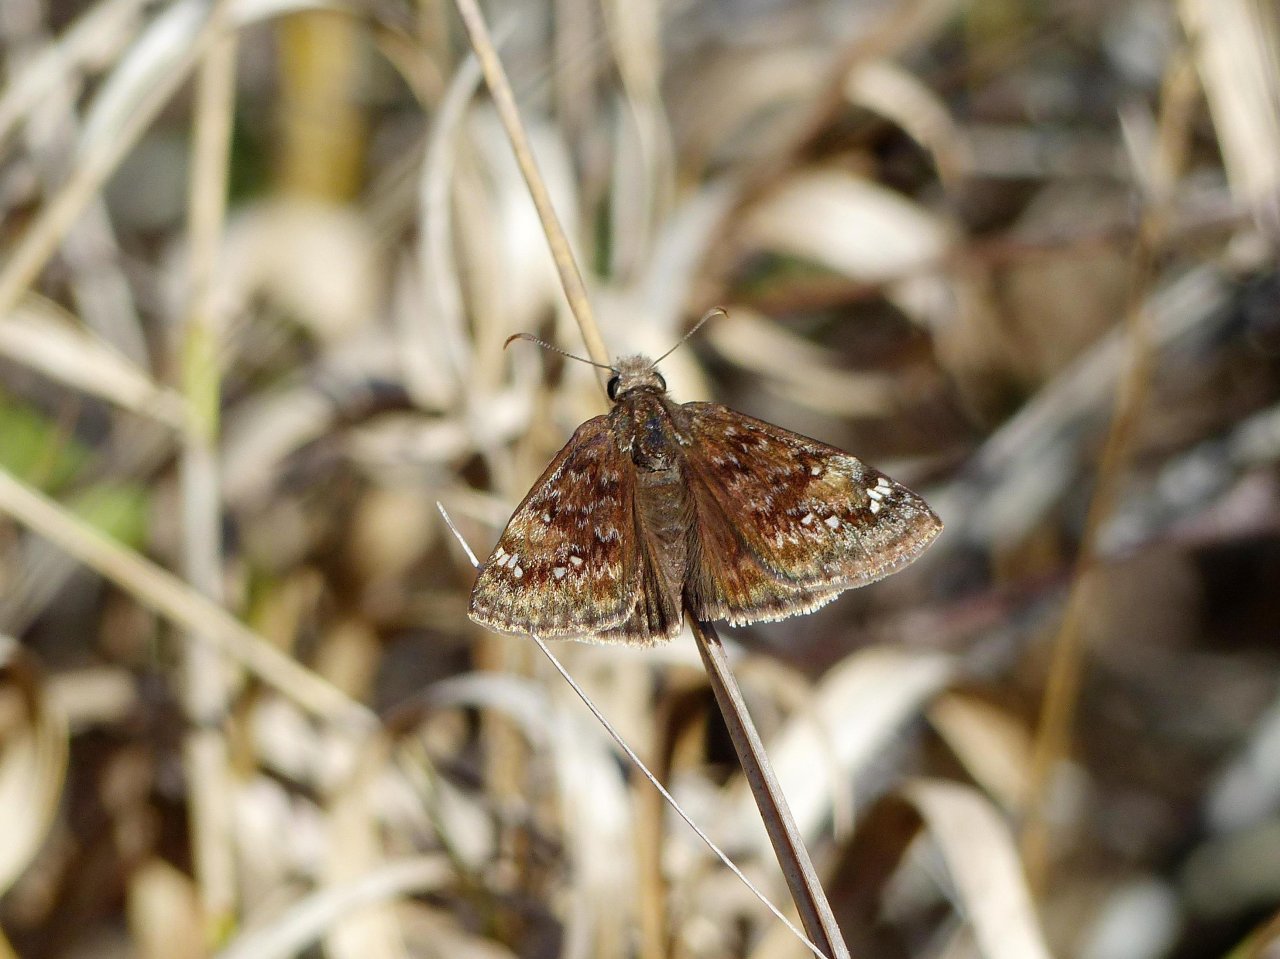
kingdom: Animalia
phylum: Arthropoda
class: Insecta
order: Lepidoptera
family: Hesperiidae
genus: Gesta
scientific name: Gesta
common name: Horace's Duskywing
